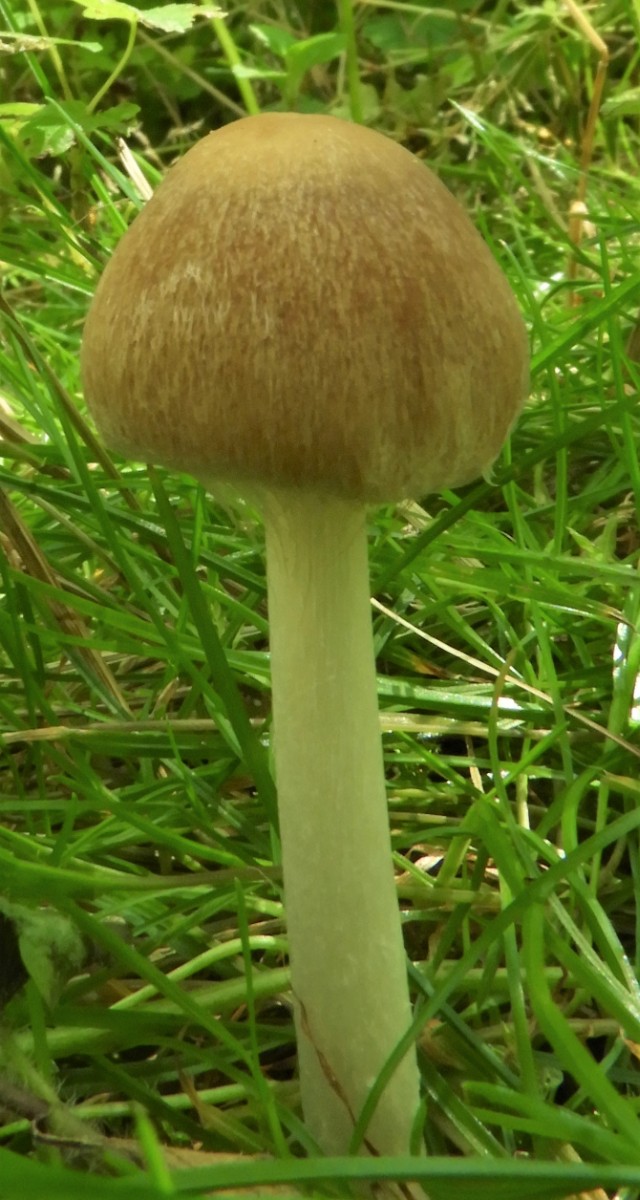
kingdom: Fungi
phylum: Basidiomycota
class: Agaricomycetes
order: Agaricales
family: Psathyrellaceae
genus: Candolleomyces
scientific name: Candolleomyces candolleanus
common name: Candolles mørkhat
